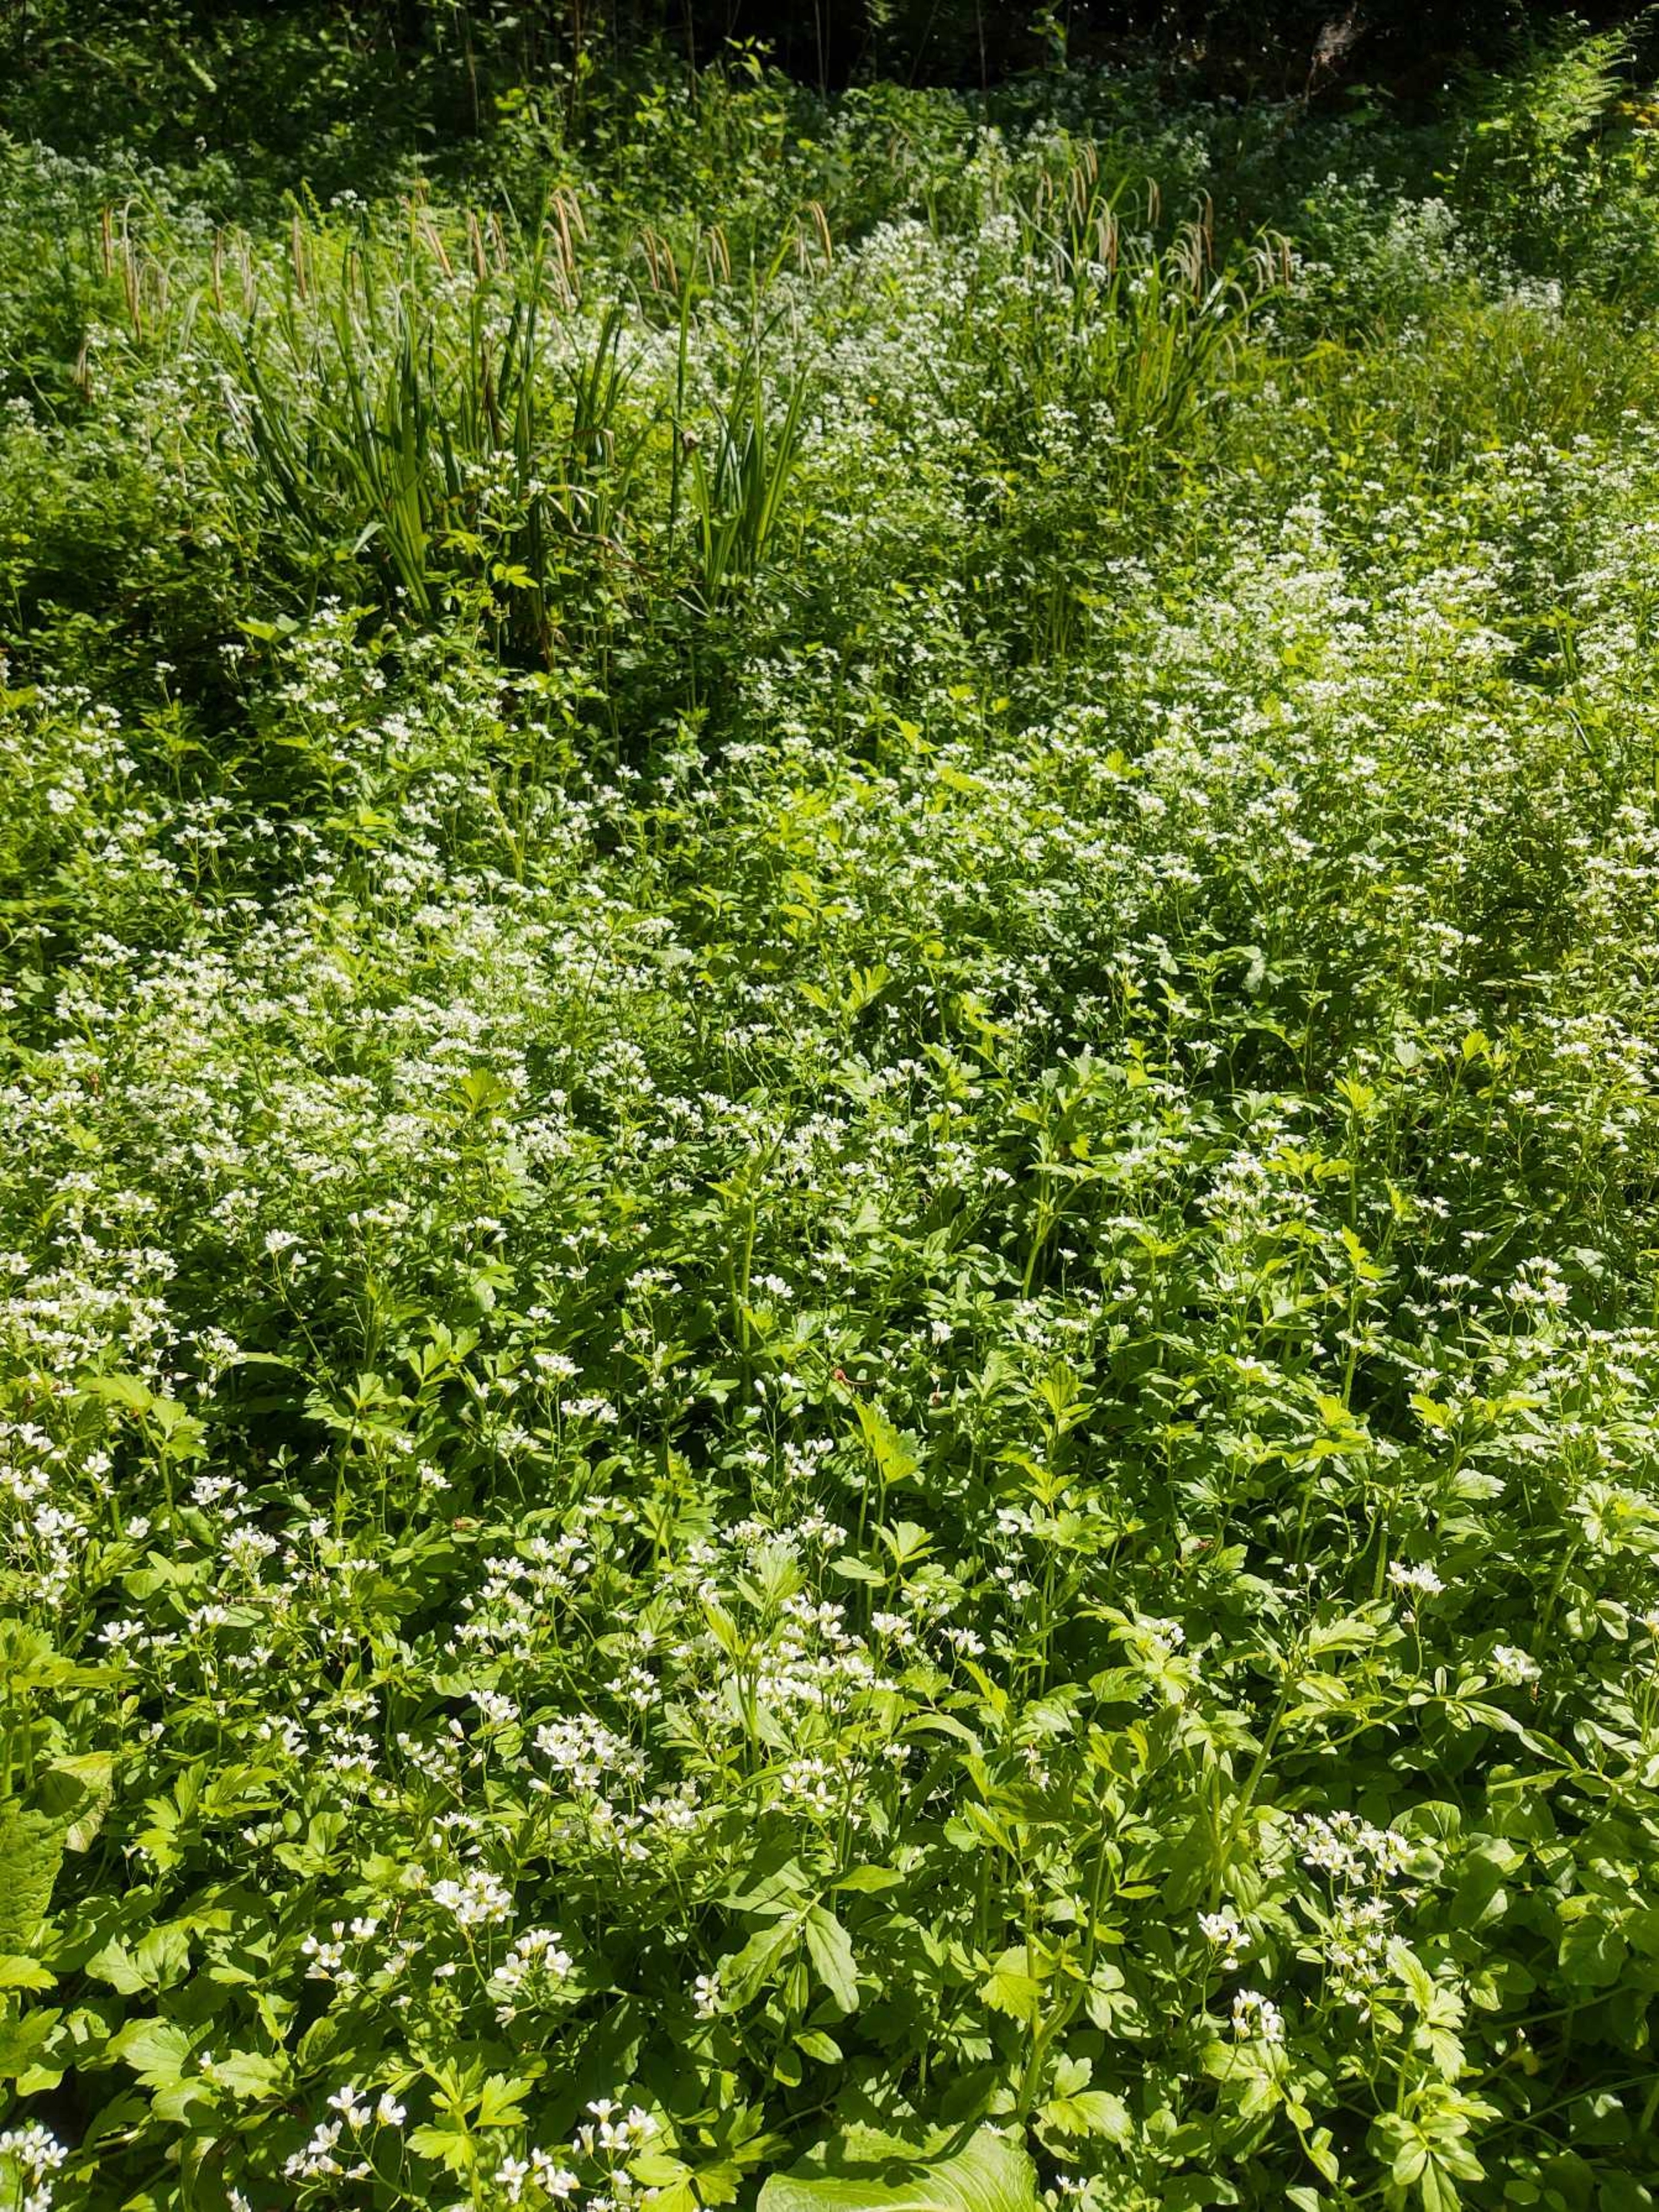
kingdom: Plantae
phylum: Tracheophyta
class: Magnoliopsida
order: Brassicales
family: Brassicaceae
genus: Cardamine
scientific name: Cardamine amara
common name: Vandkarse
